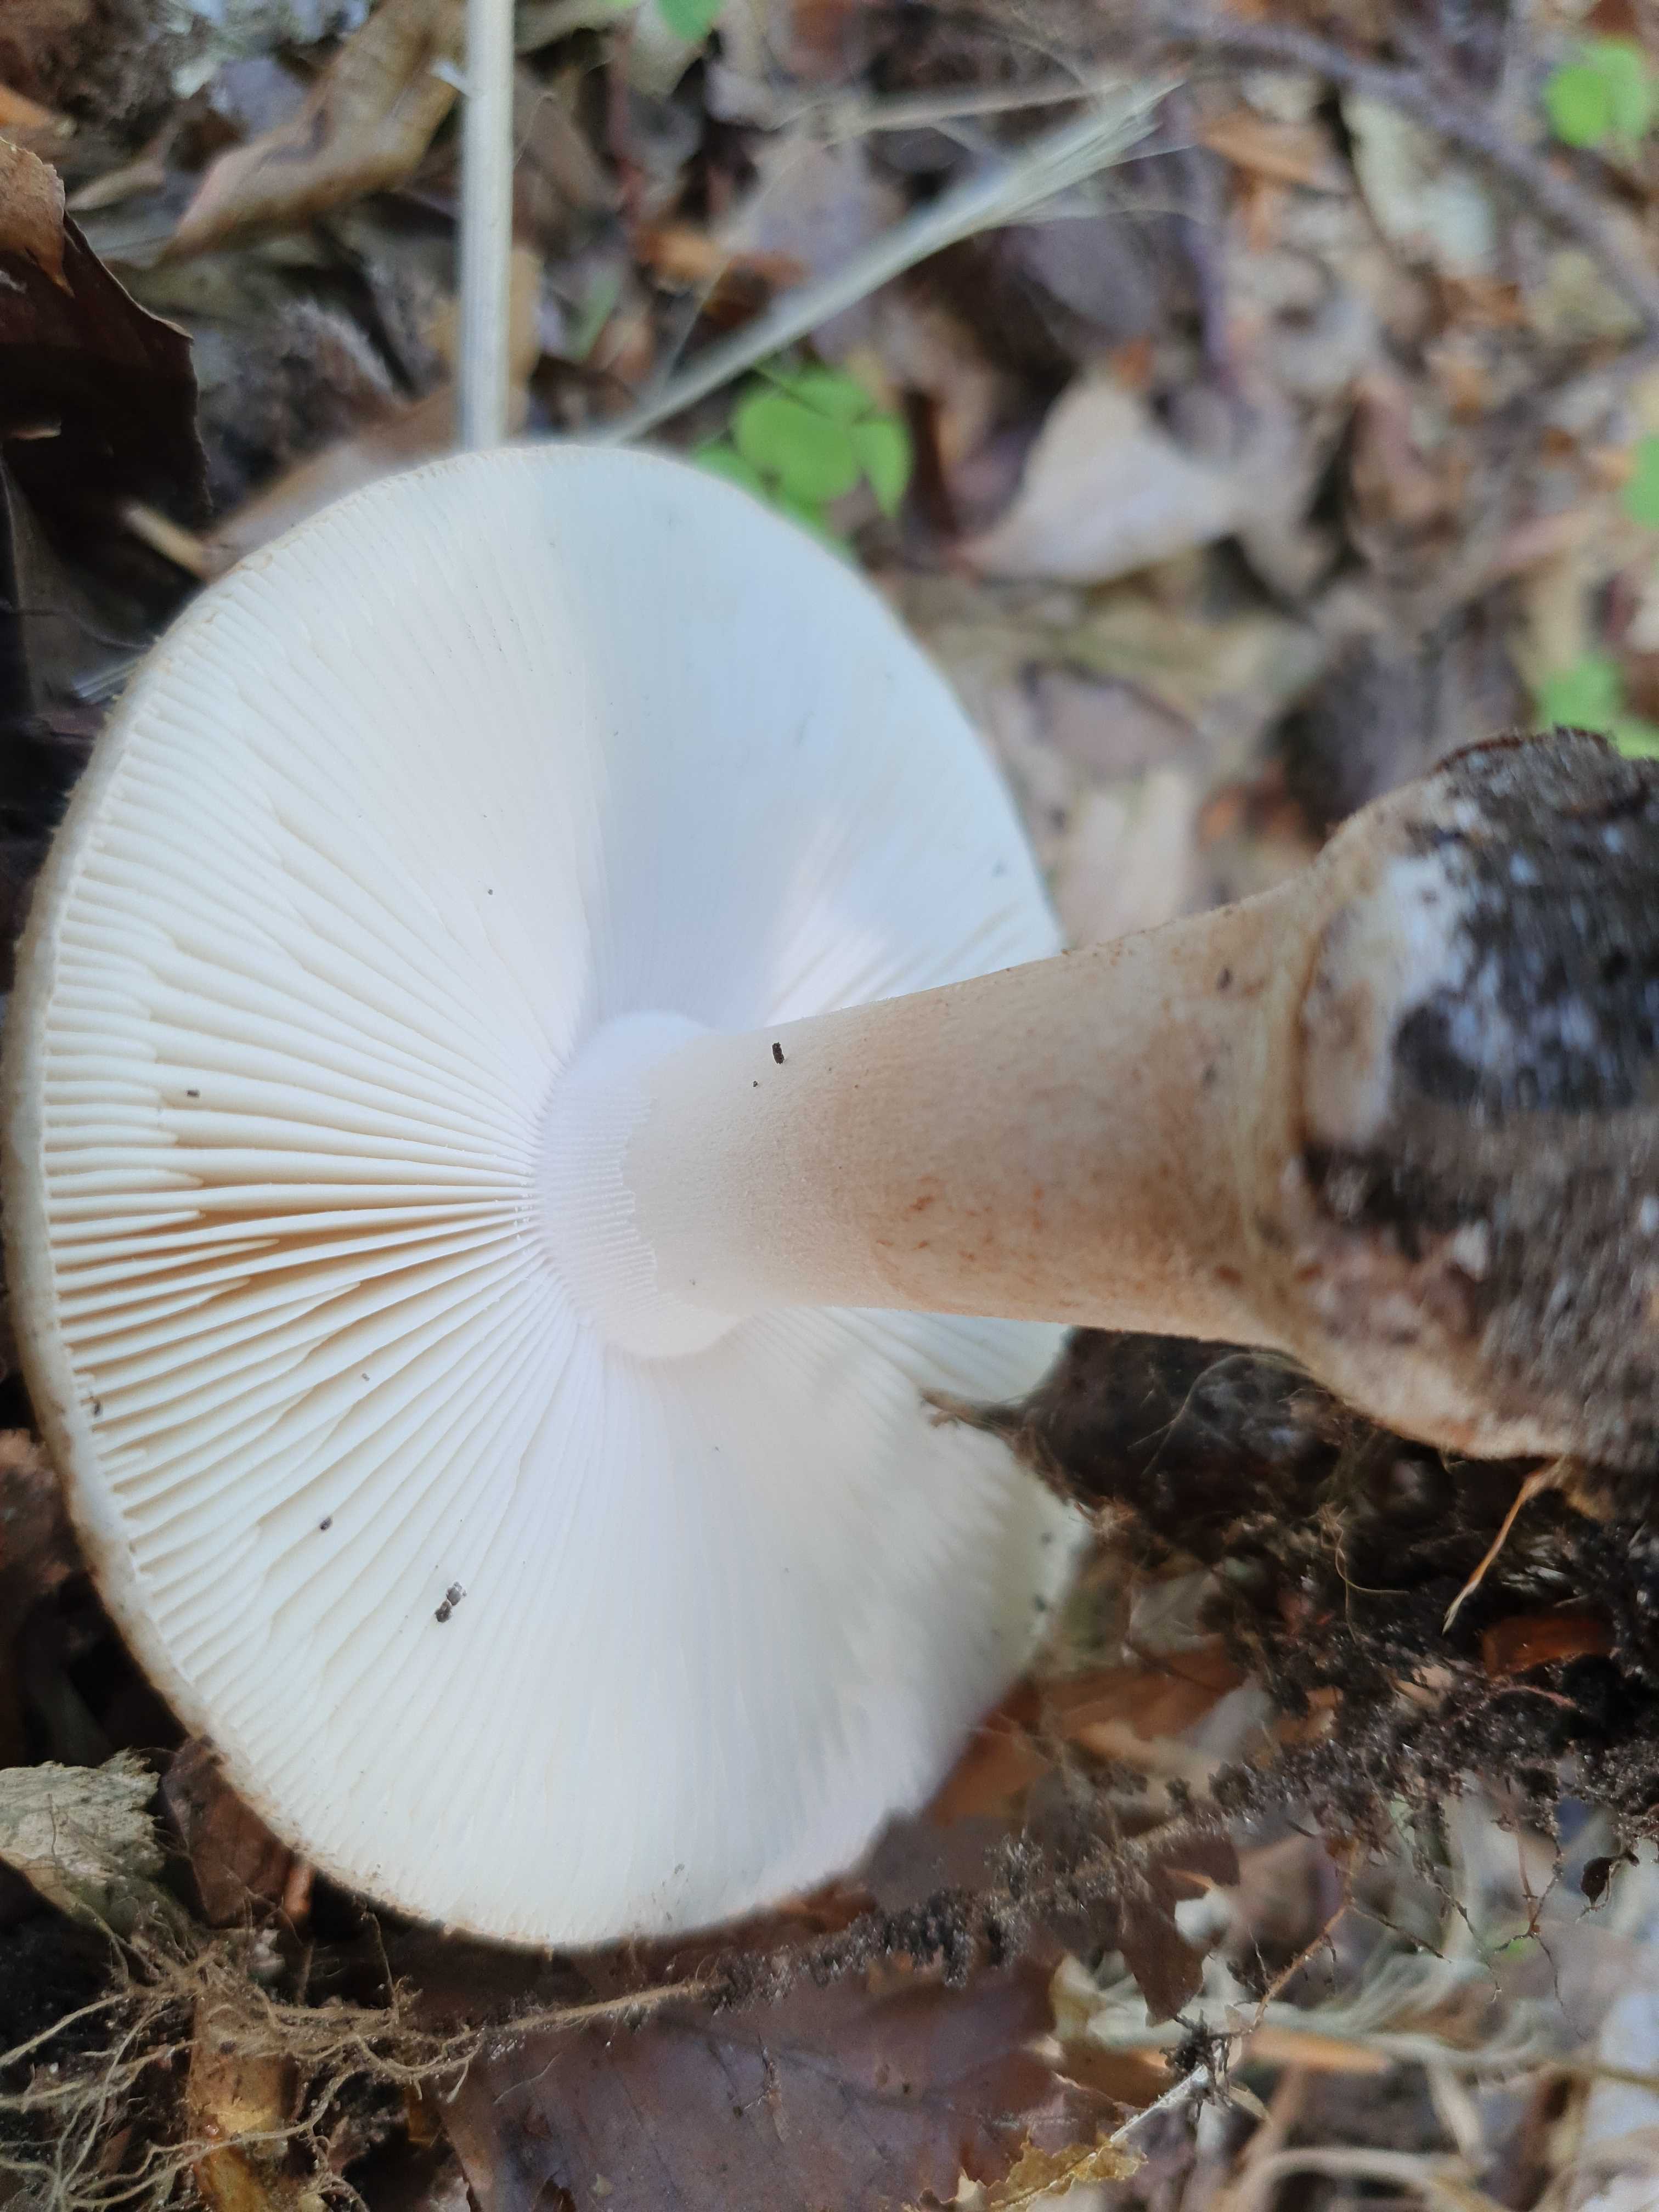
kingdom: Fungi
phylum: Basidiomycota
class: Agaricomycetes
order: Agaricales
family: Amanitaceae
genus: Amanita
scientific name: Amanita
